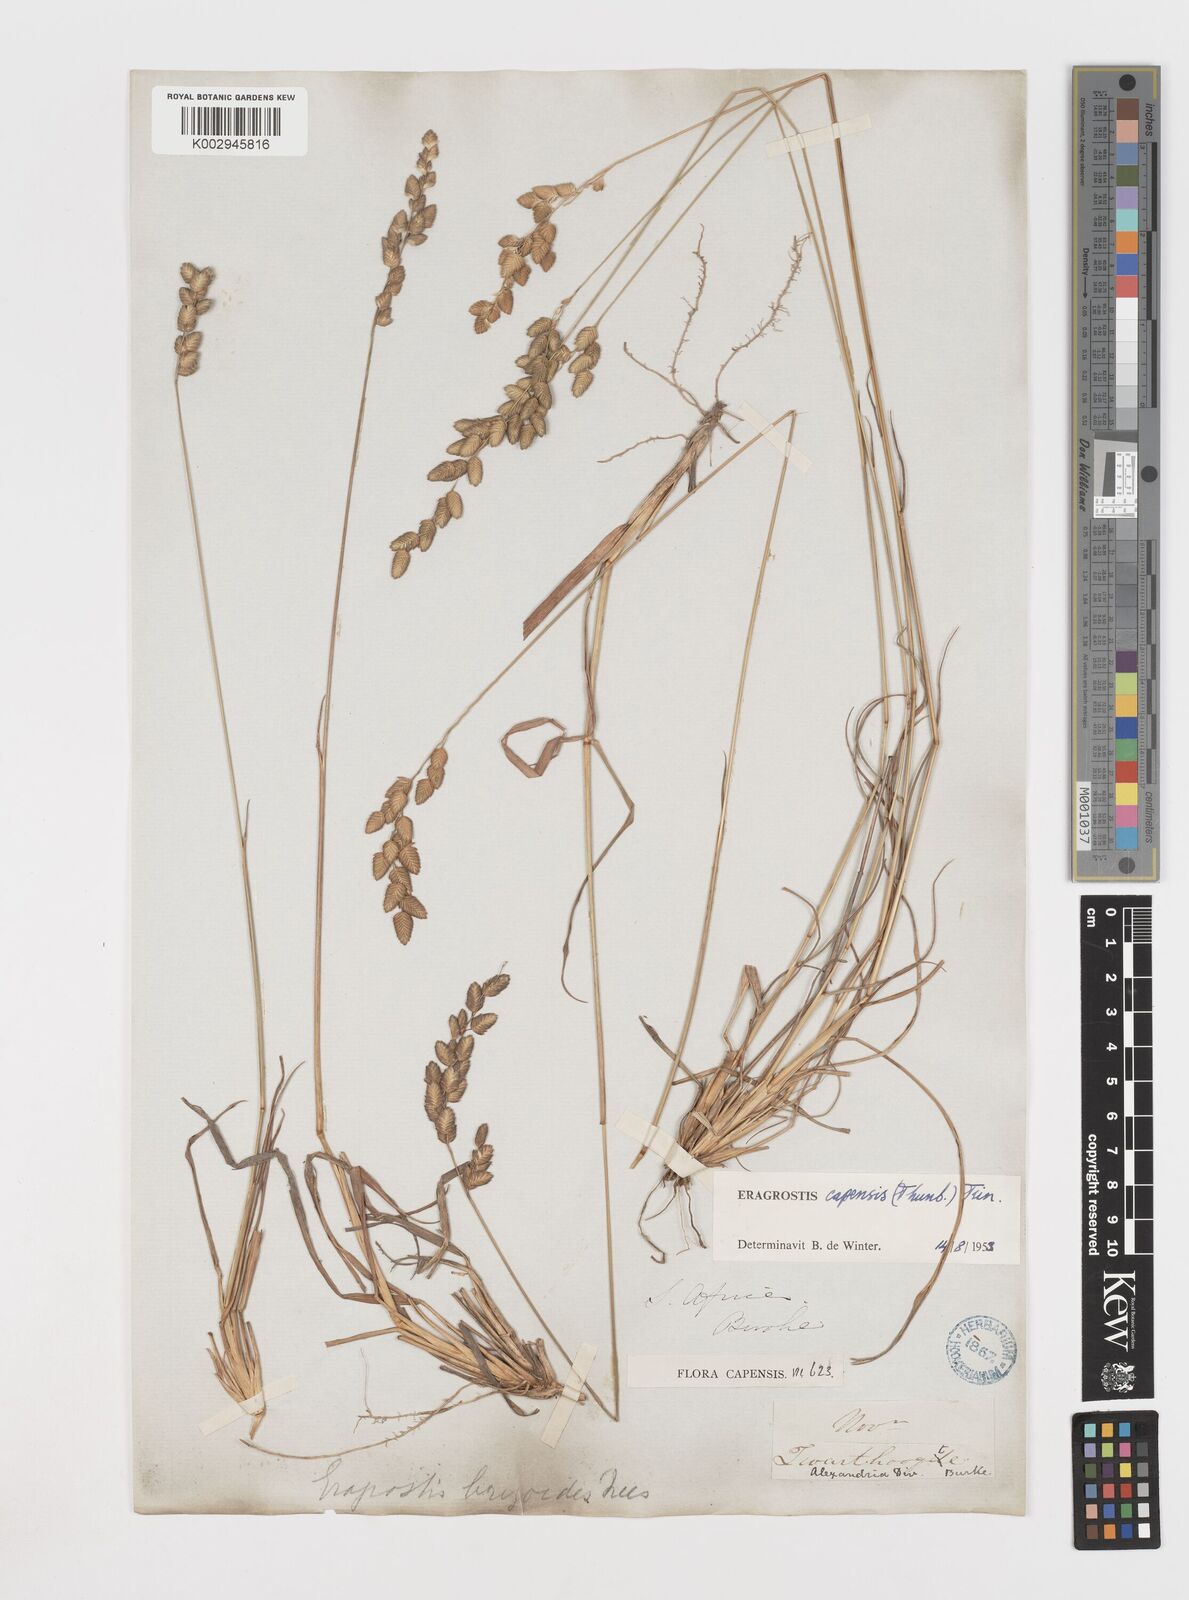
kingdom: Plantae
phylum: Tracheophyta
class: Liliopsida
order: Poales
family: Poaceae
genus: Eragrostis
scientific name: Eragrostis capensis
